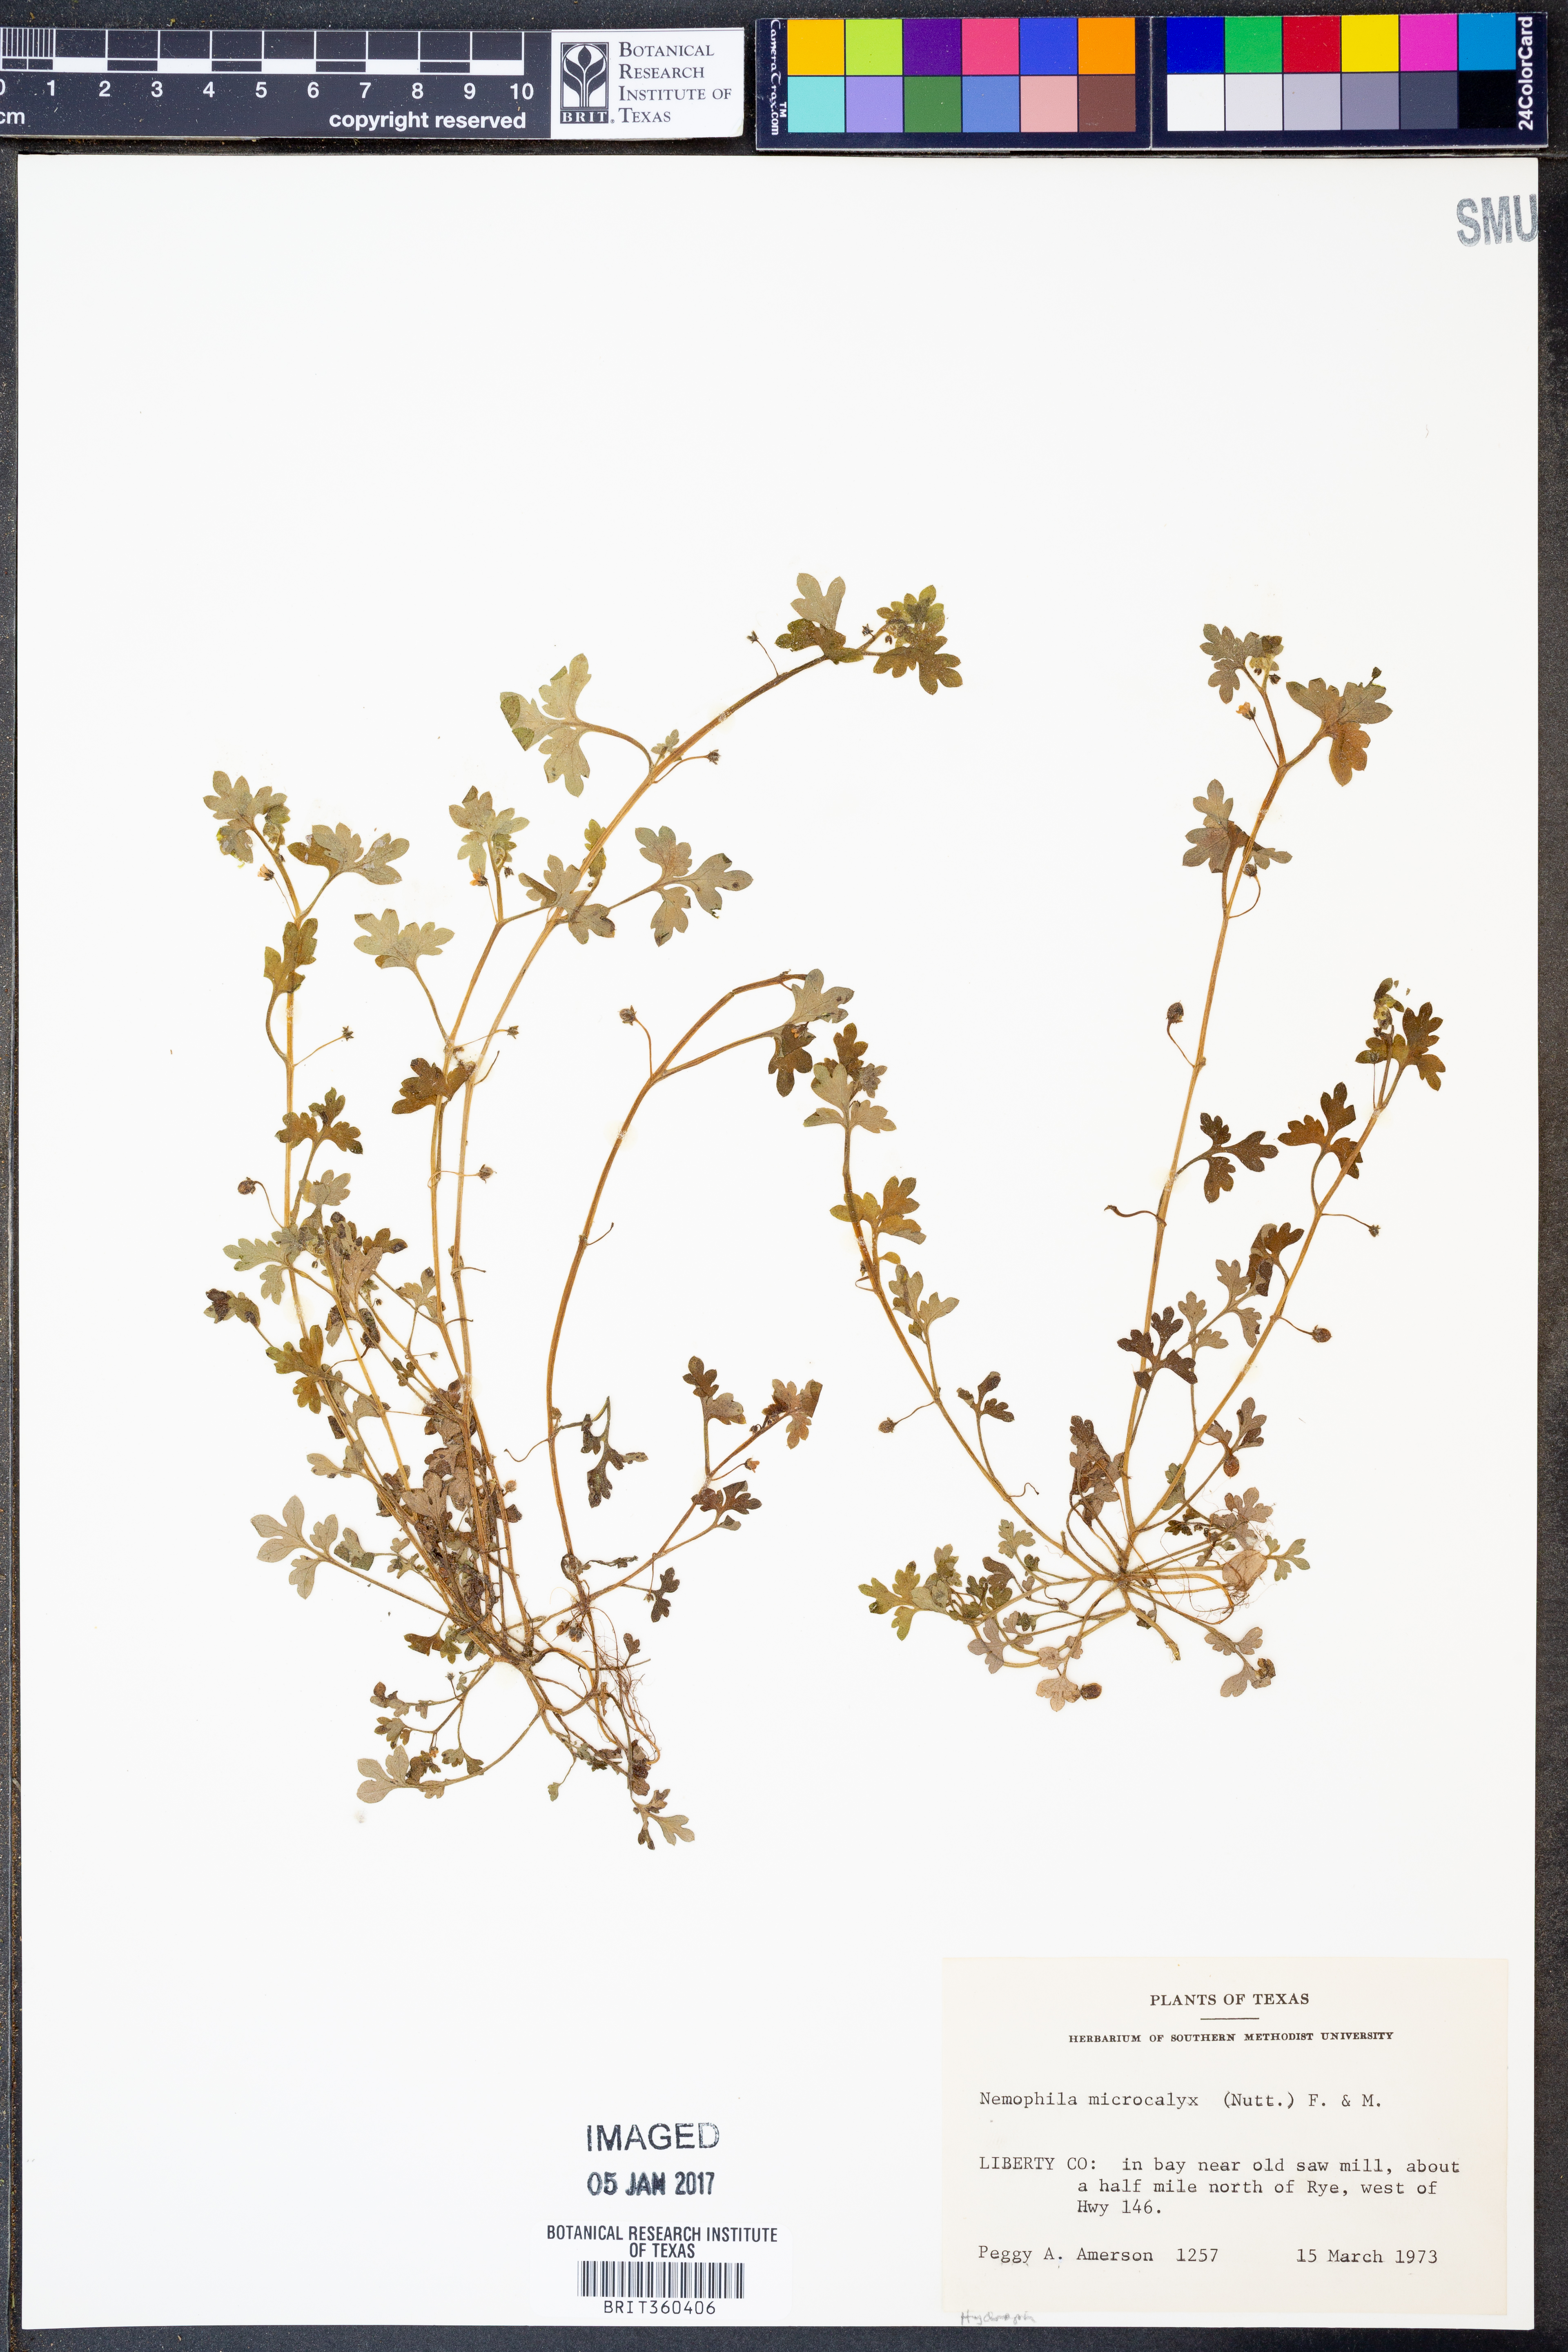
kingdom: Plantae
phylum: Tracheophyta
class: Magnoliopsida
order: Boraginales
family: Hydrophyllaceae
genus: Nemophila
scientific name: Nemophila aphylla
